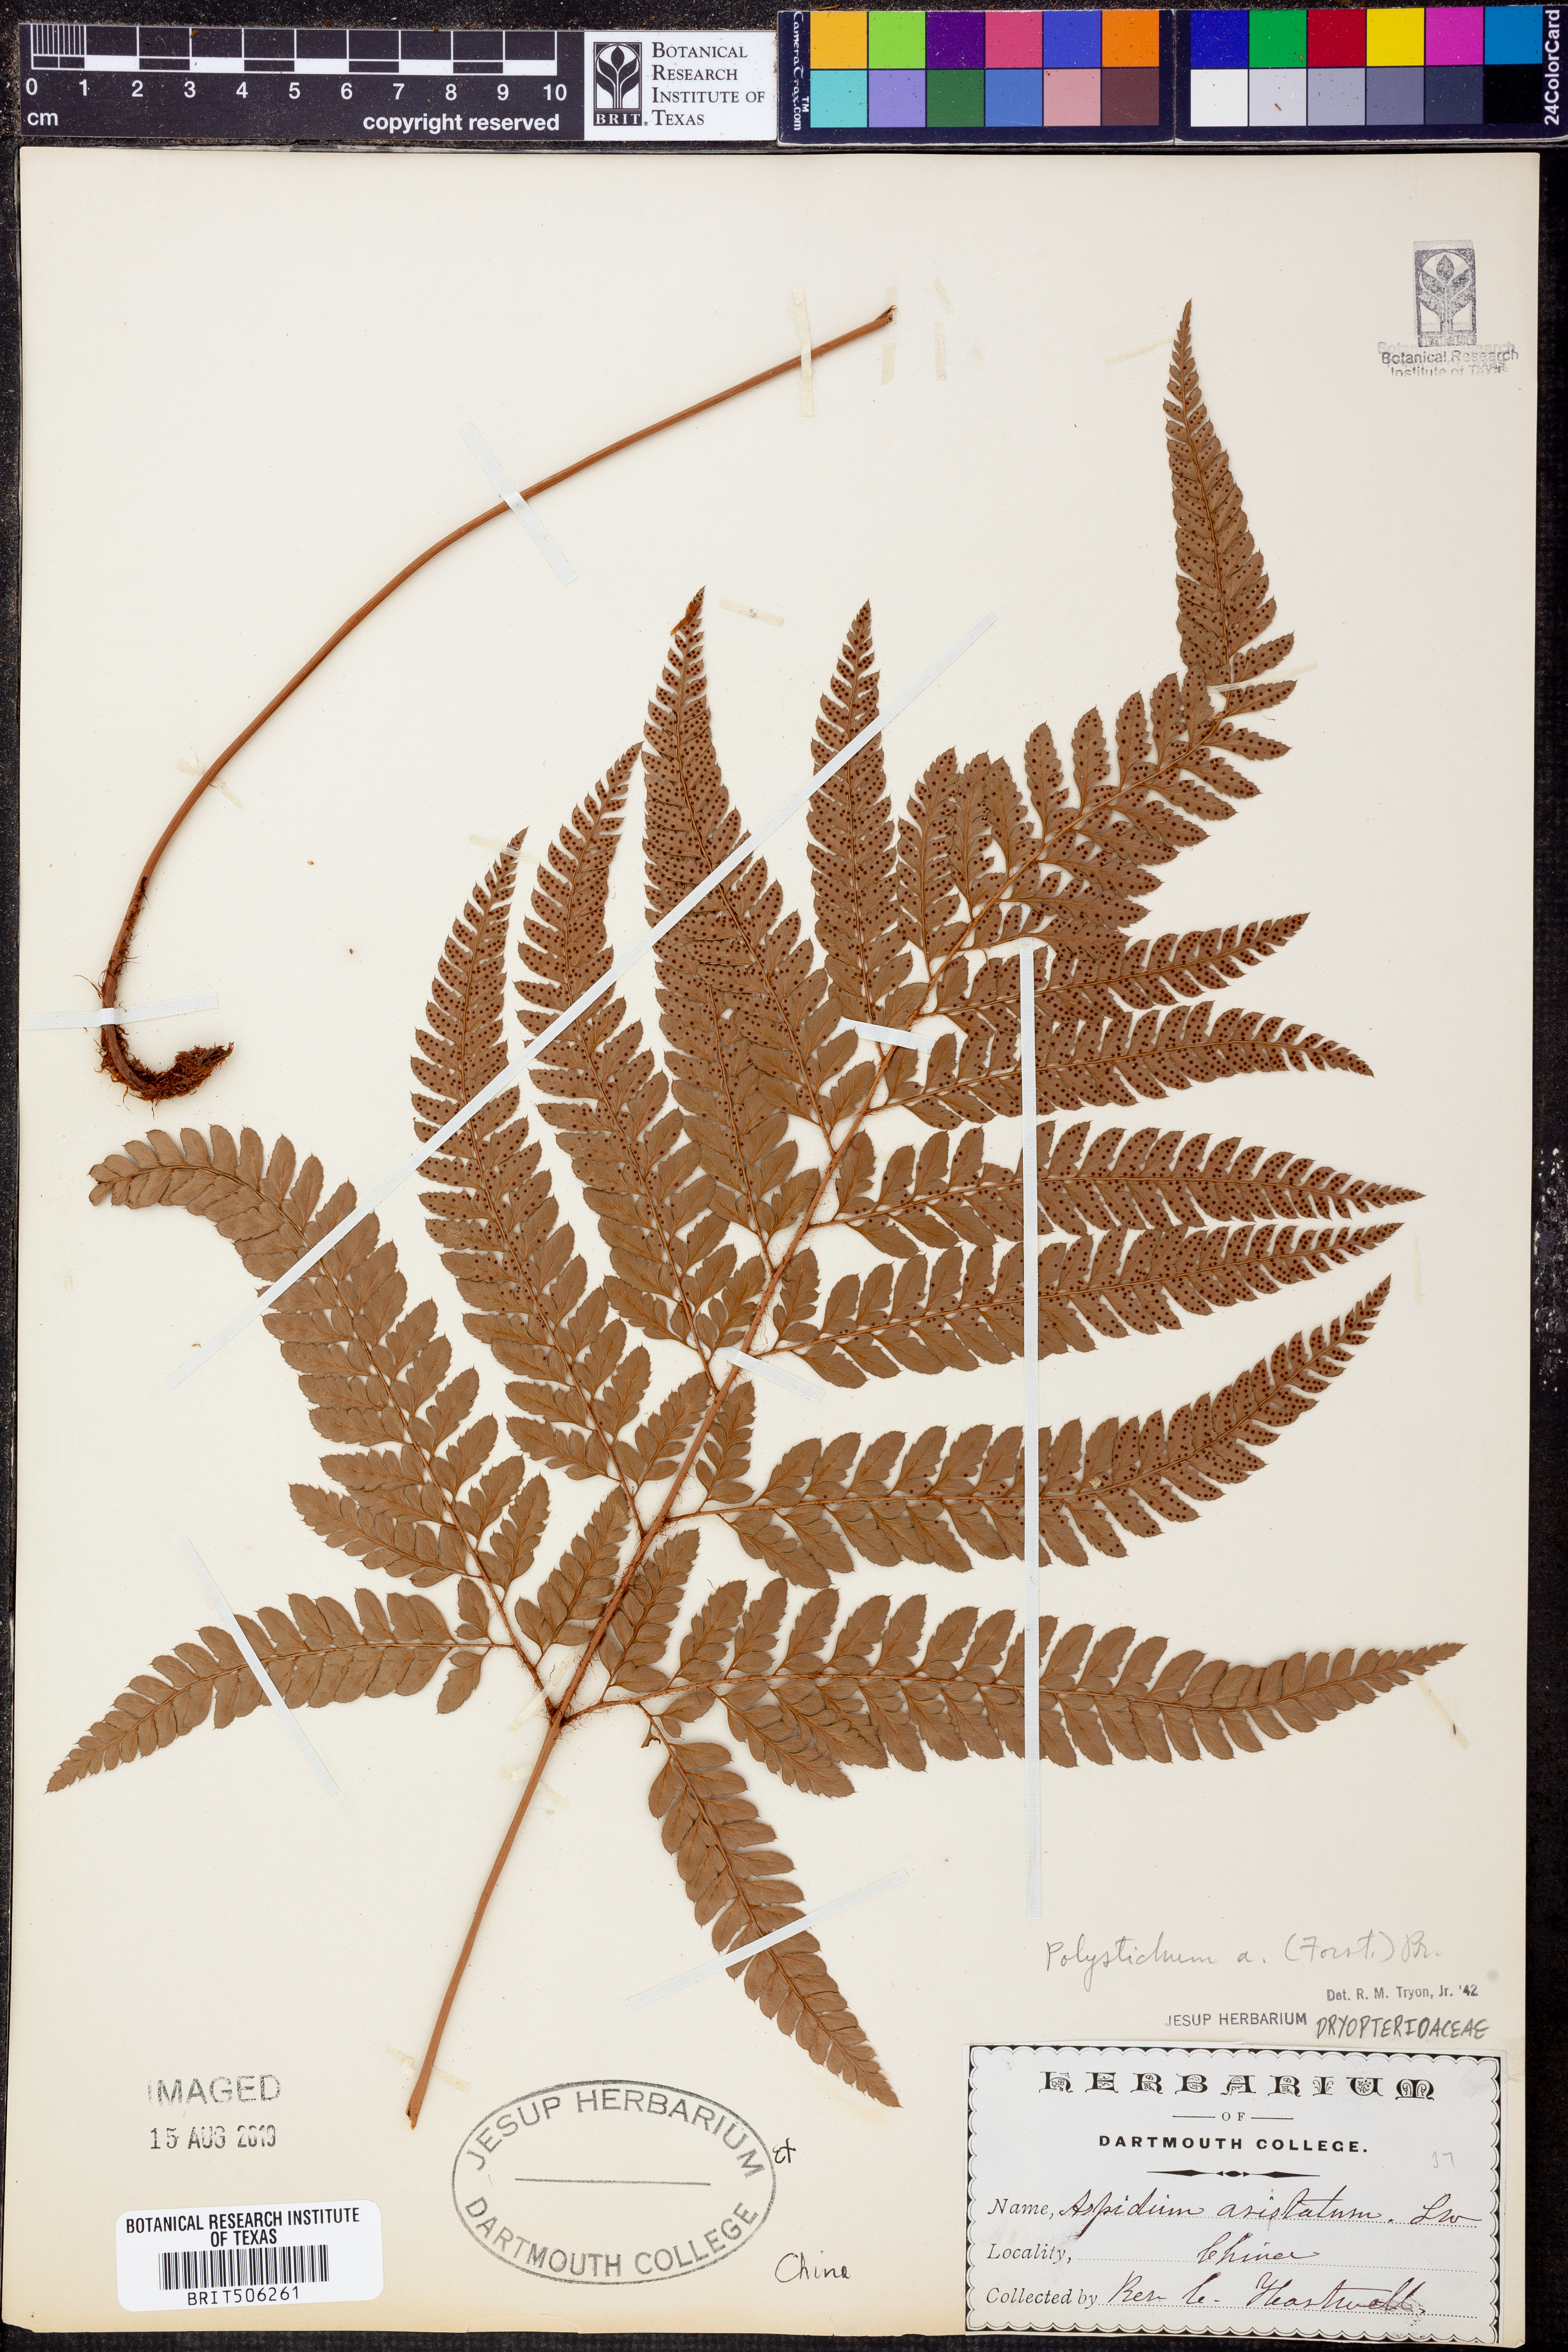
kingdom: Plantae
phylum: Tracheophyta
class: Polypodiopsida
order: Polypodiales
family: Dryopteridaceae
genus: Polystichum
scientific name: Polystichum aristatum
